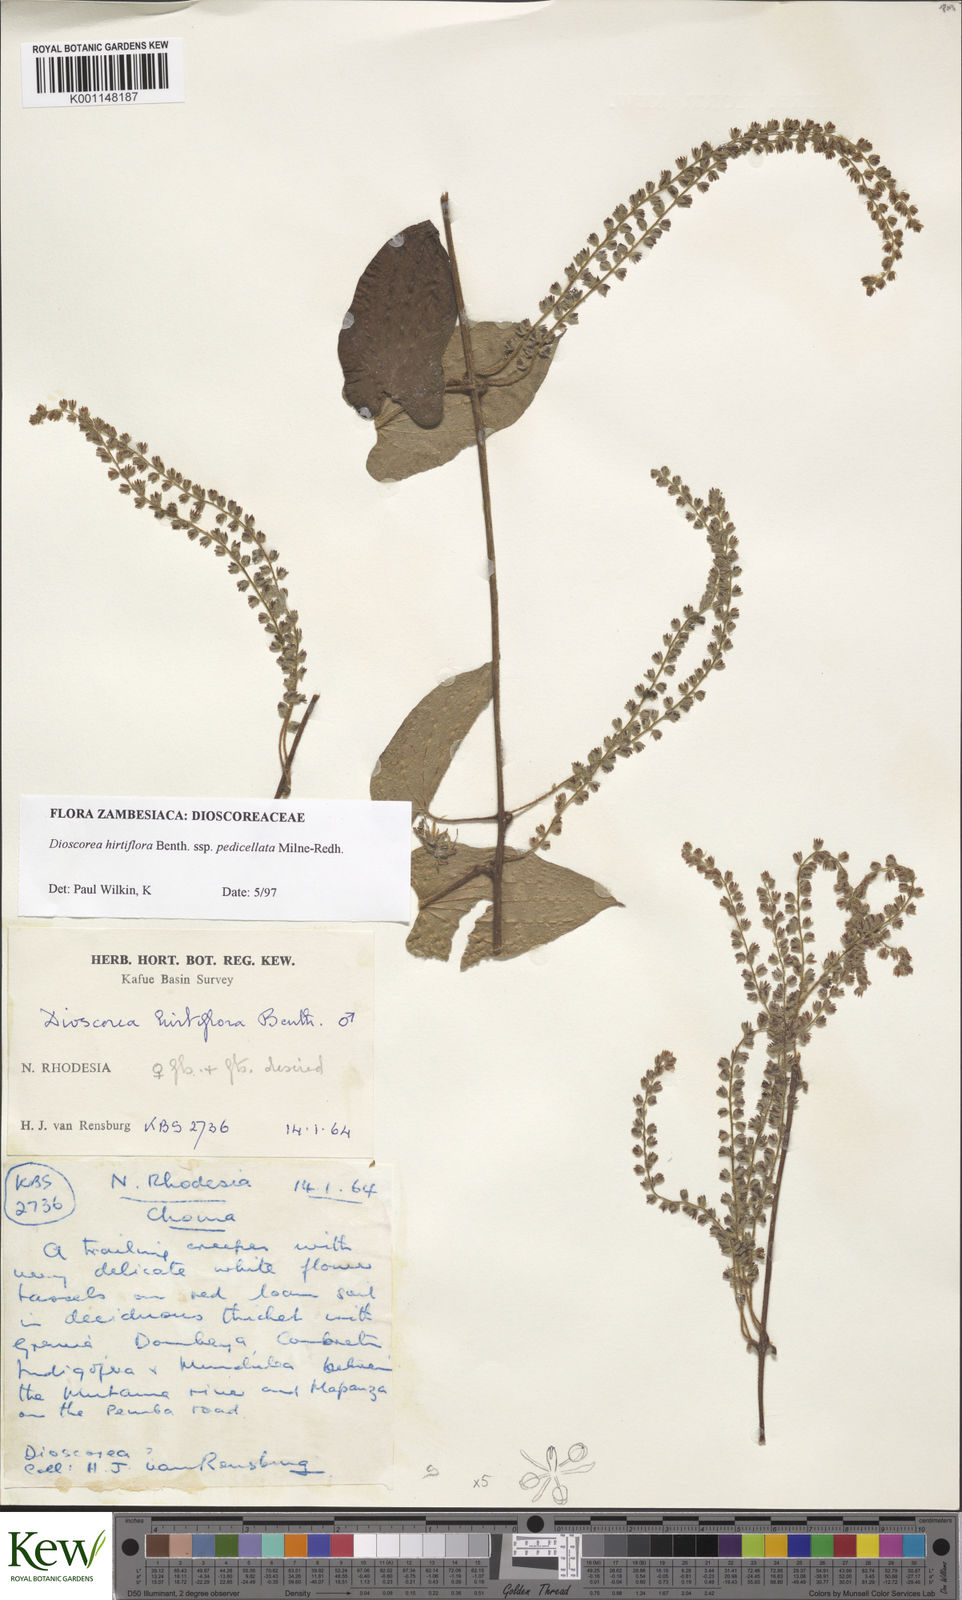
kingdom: Plantae
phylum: Tracheophyta
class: Liliopsida
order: Dioscoreales
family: Dioscoreaceae
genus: Dioscorea
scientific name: Dioscorea hirtiflora
